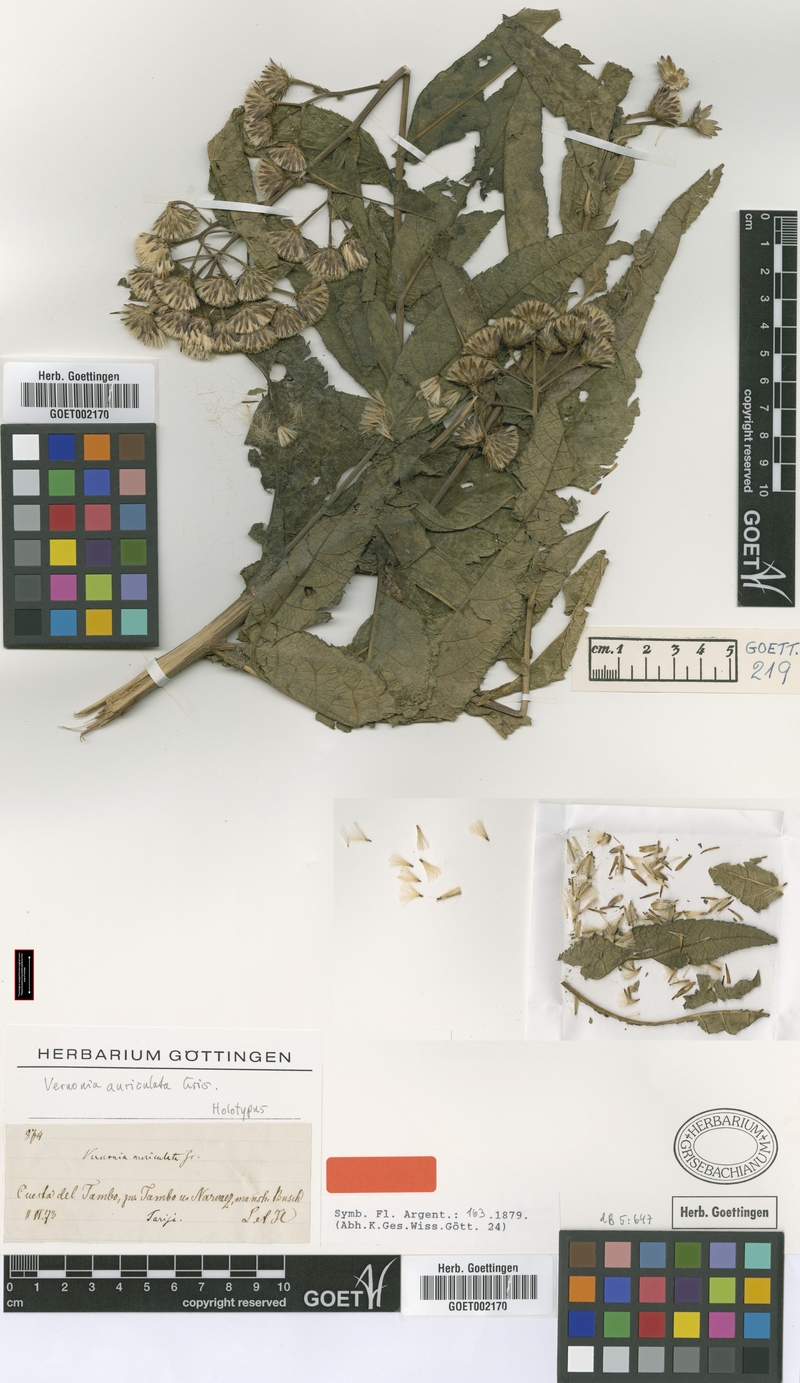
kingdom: Plantae
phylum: Tracheophyta
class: Magnoliopsida
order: Asterales
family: Asteraceae
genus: Vernonanthura
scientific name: Vernonanthura auriculata
